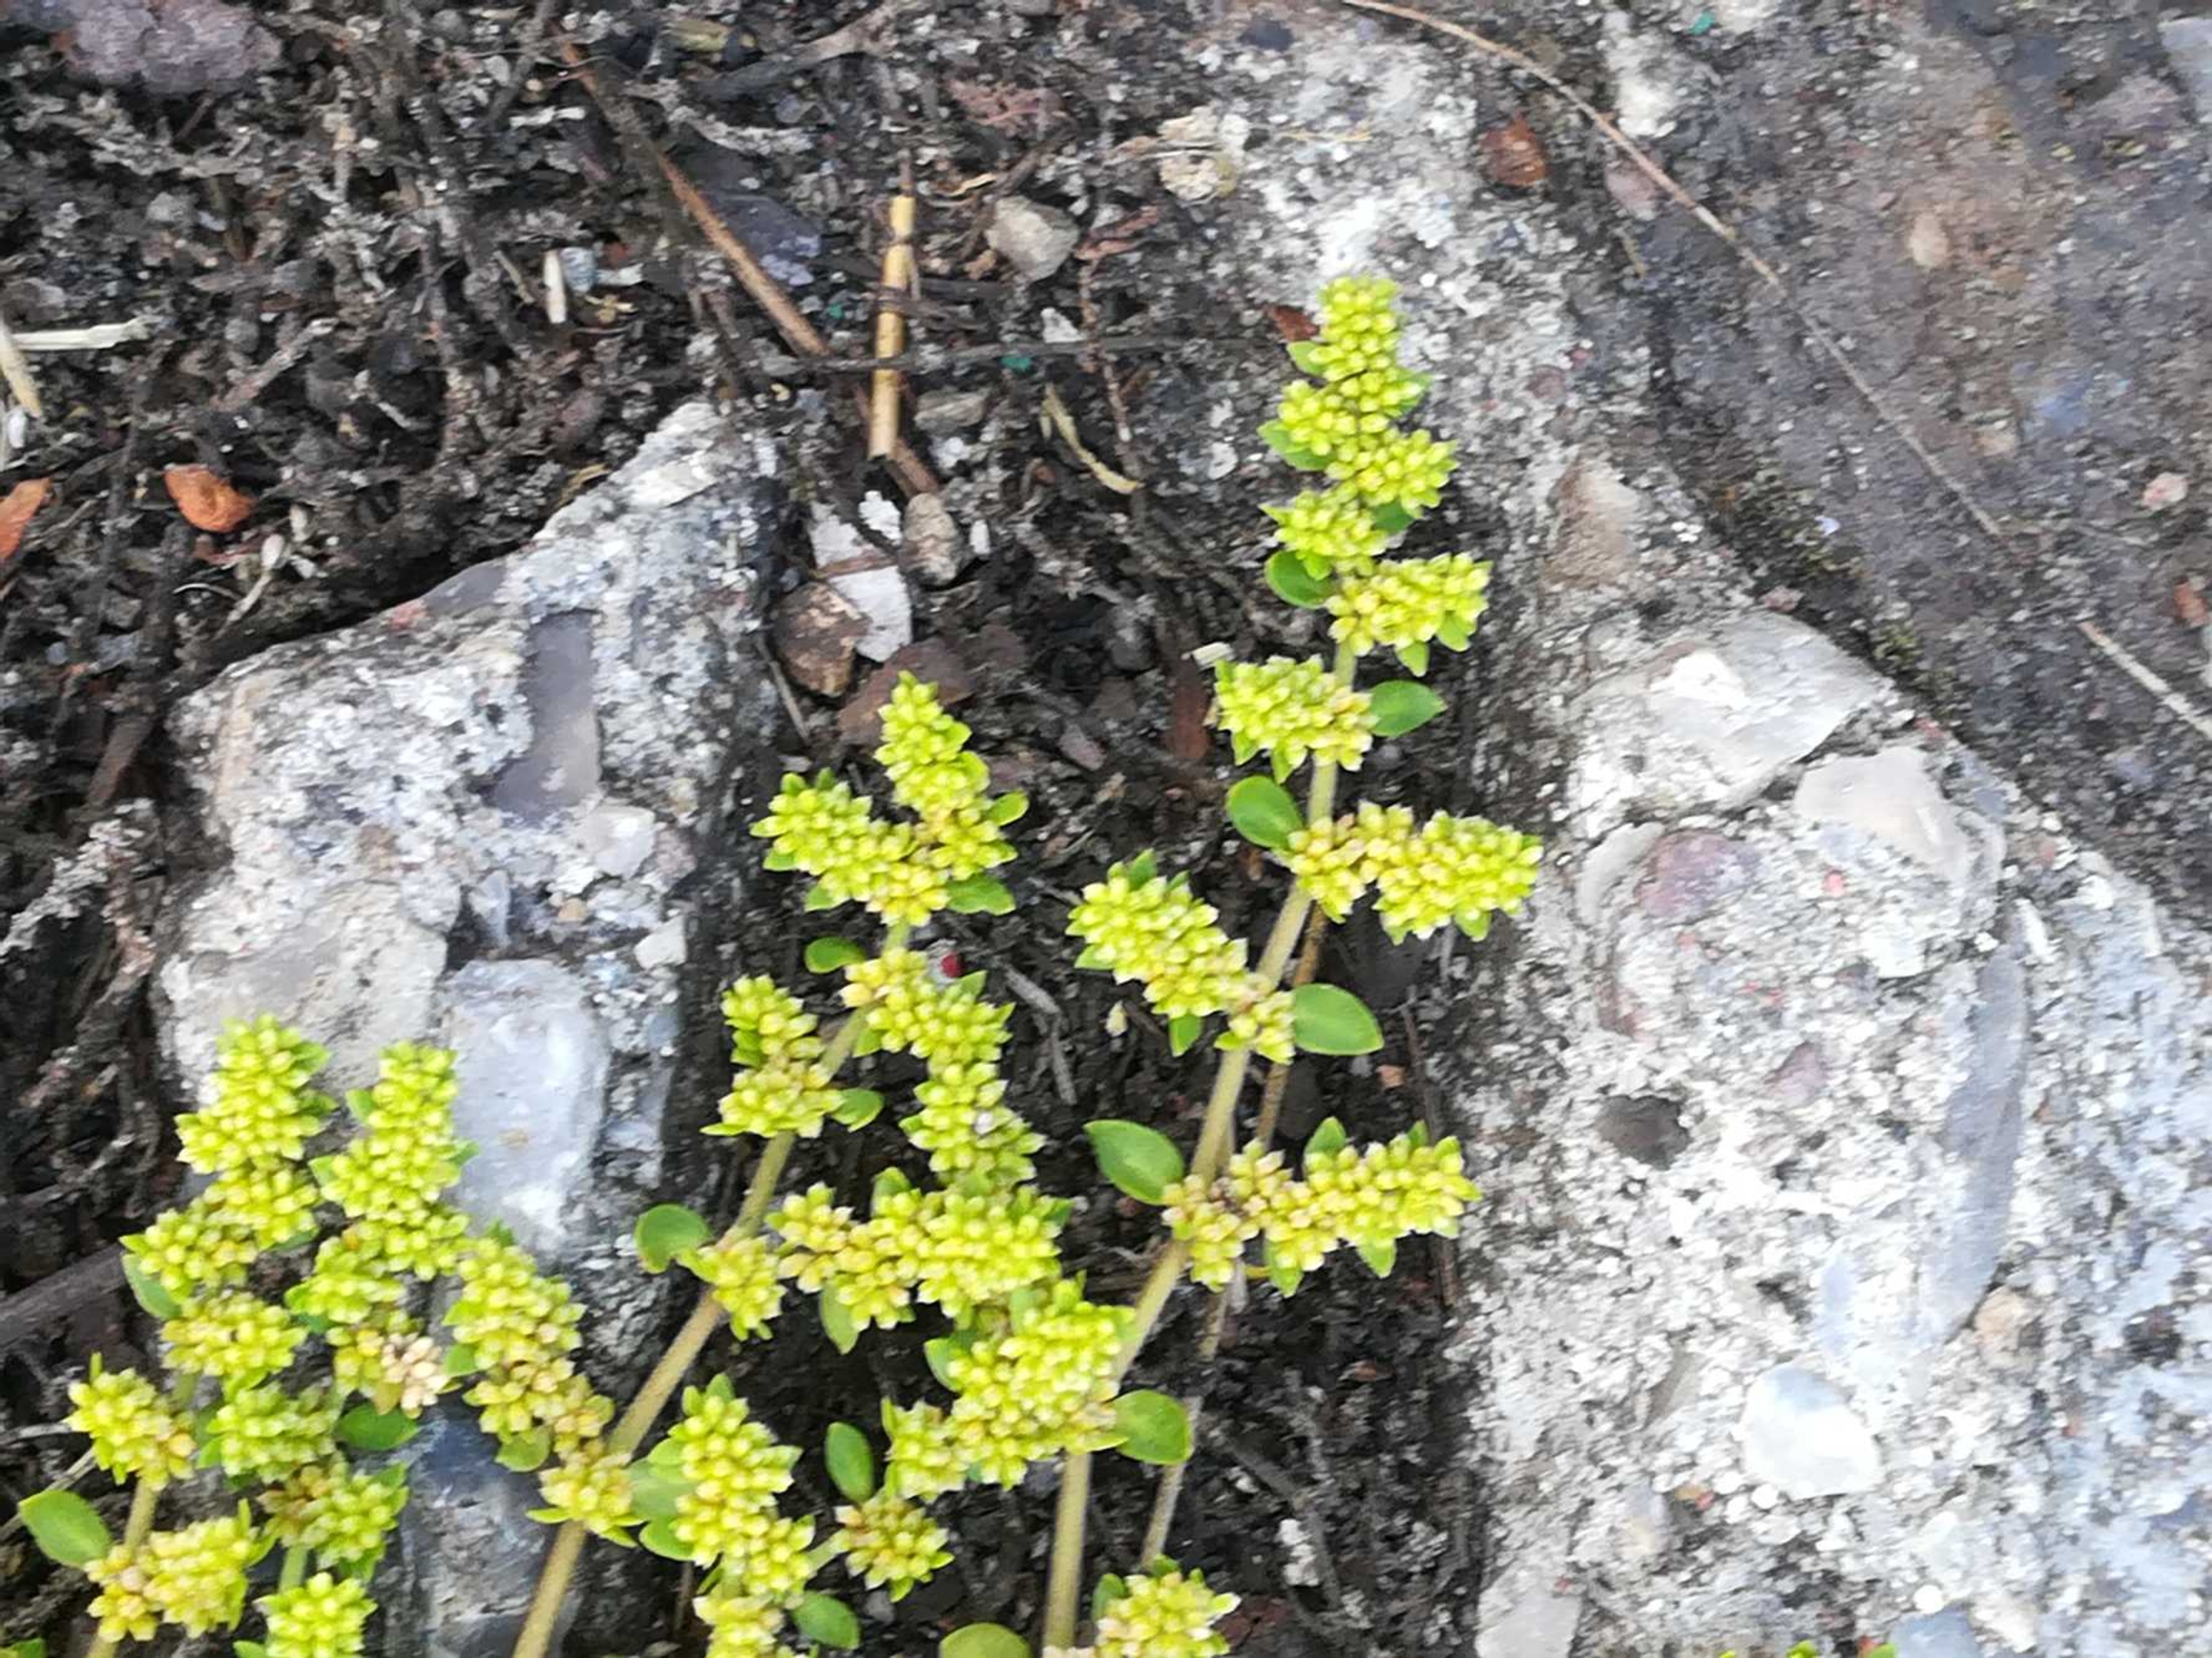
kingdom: Plantae
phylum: Tracheophyta
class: Magnoliopsida
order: Caryophyllales
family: Caryophyllaceae
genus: Herniaria
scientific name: Herniaria glabra
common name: Brudurt
